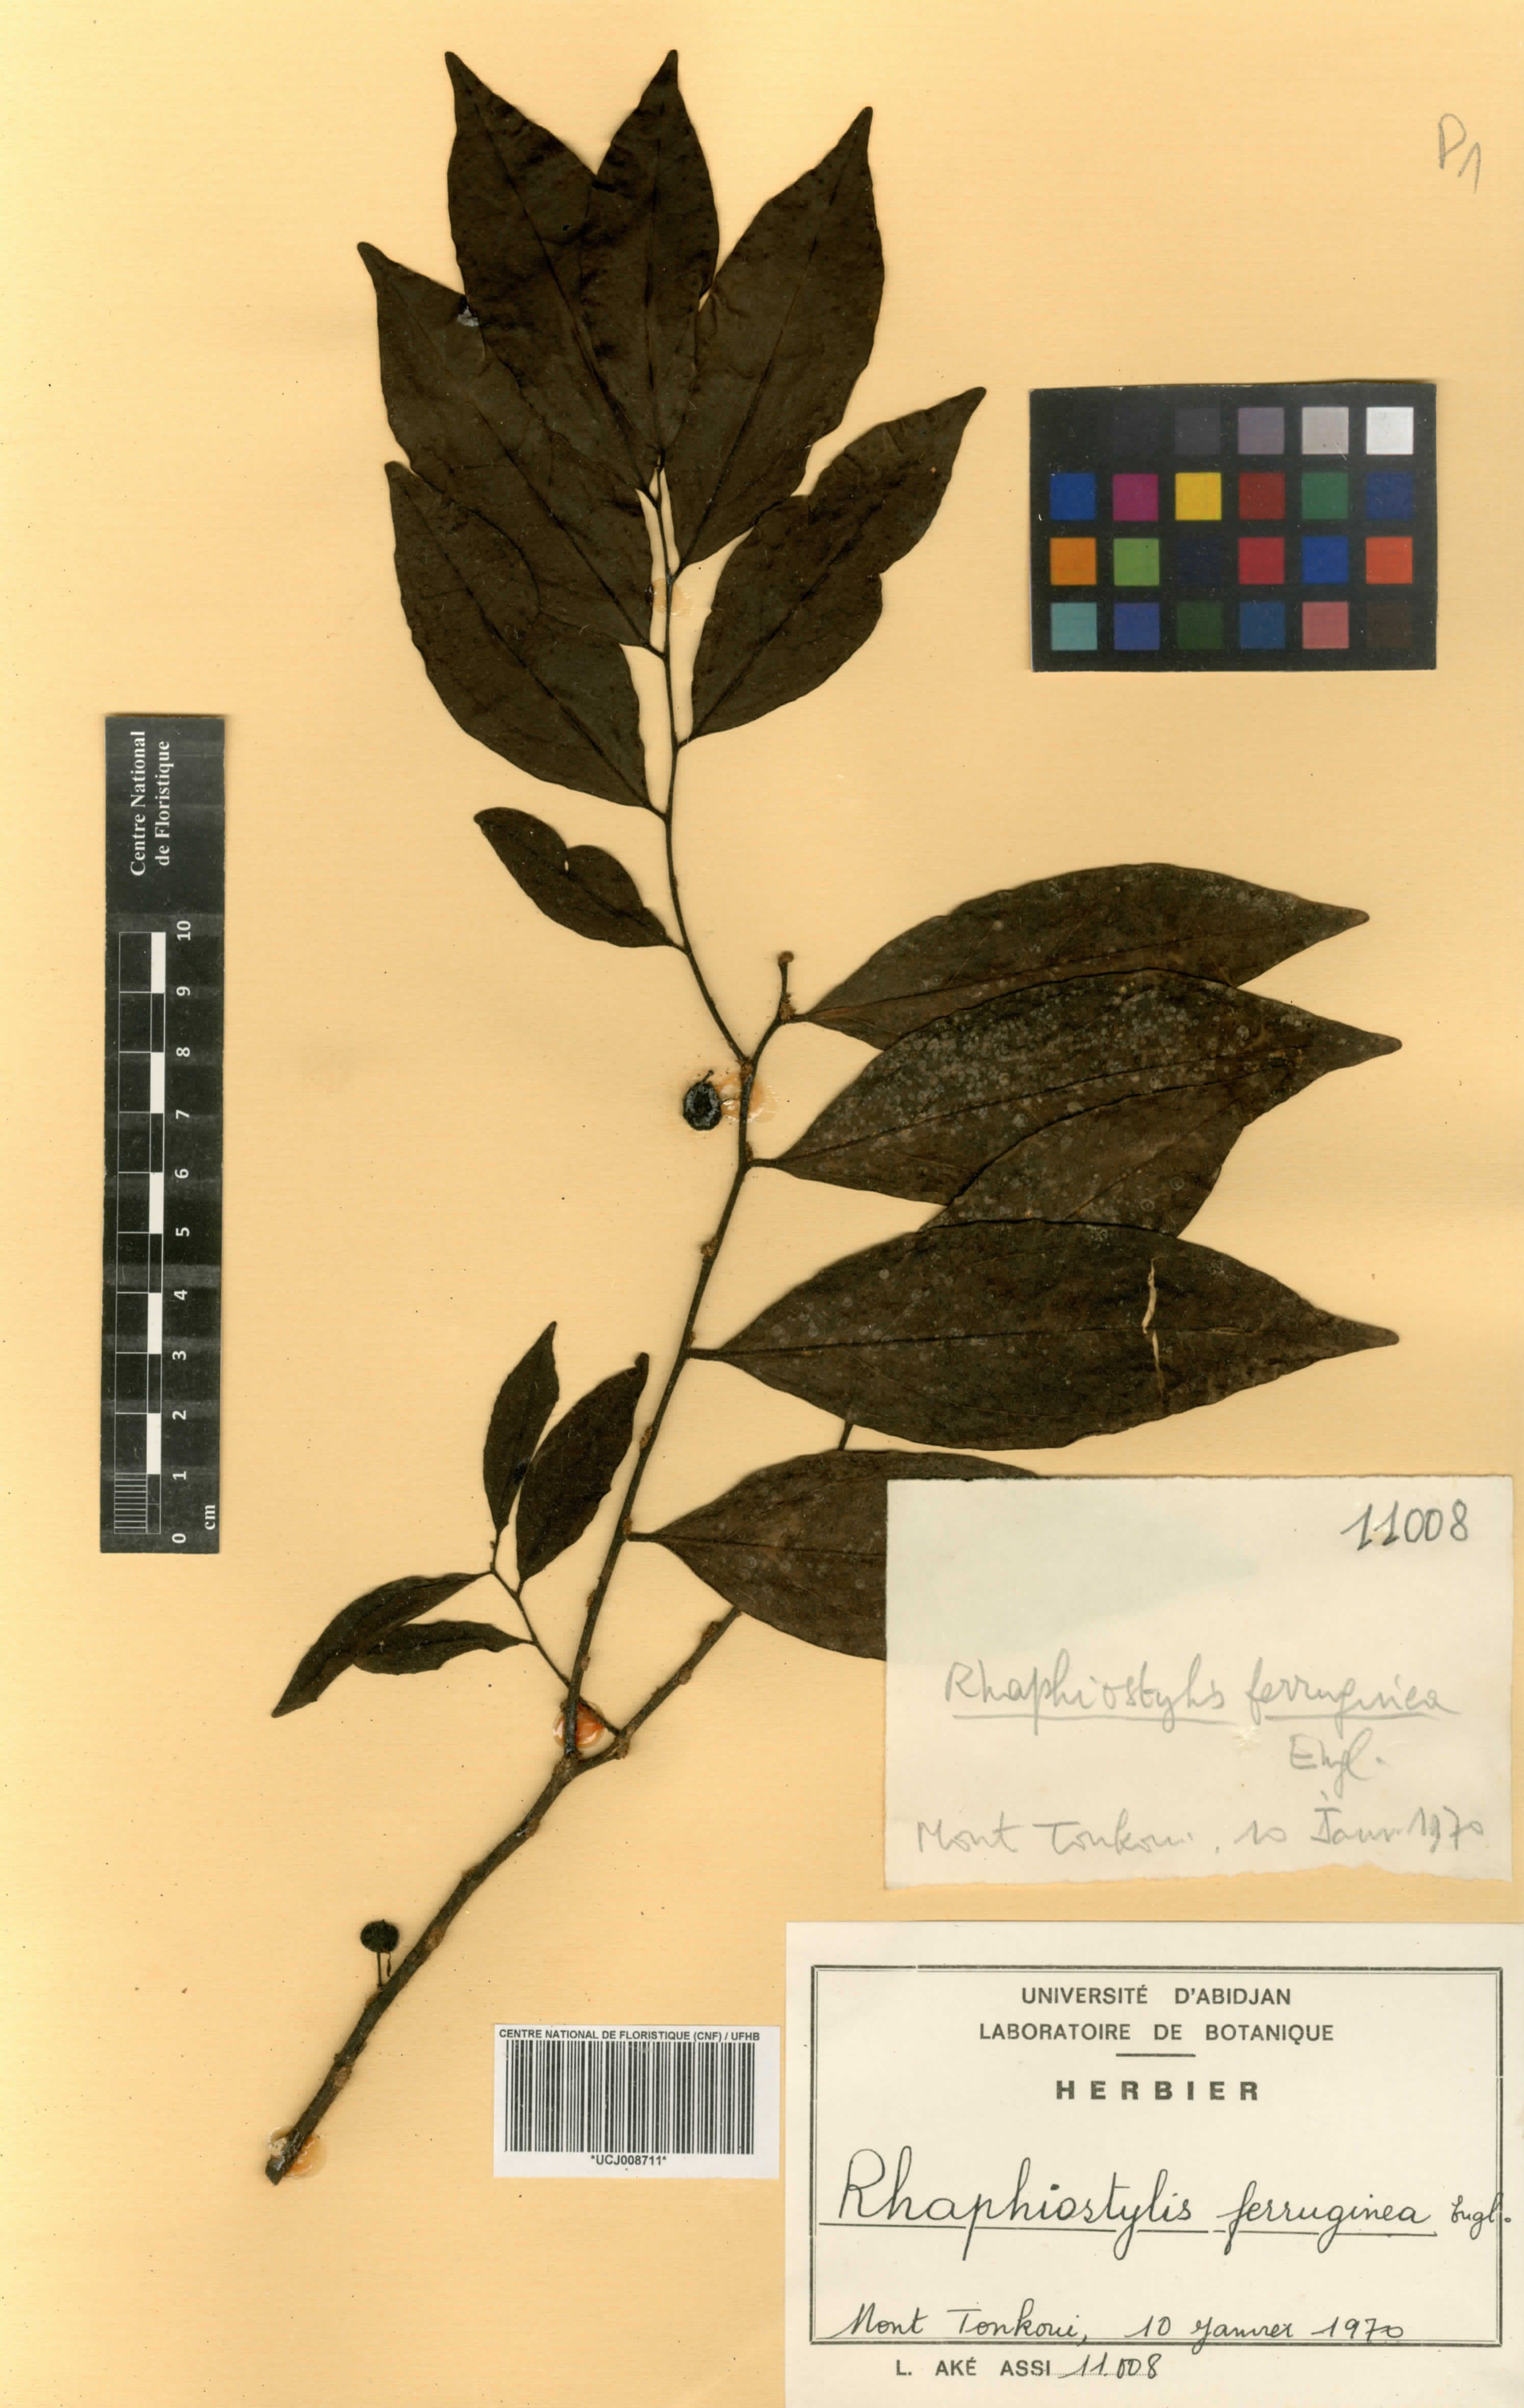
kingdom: Plantae
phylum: Tracheophyta
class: Magnoliopsida
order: Metteniusales
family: Metteniusaceae
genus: Rhaphiostylis
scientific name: Rhaphiostylis ferruginea
